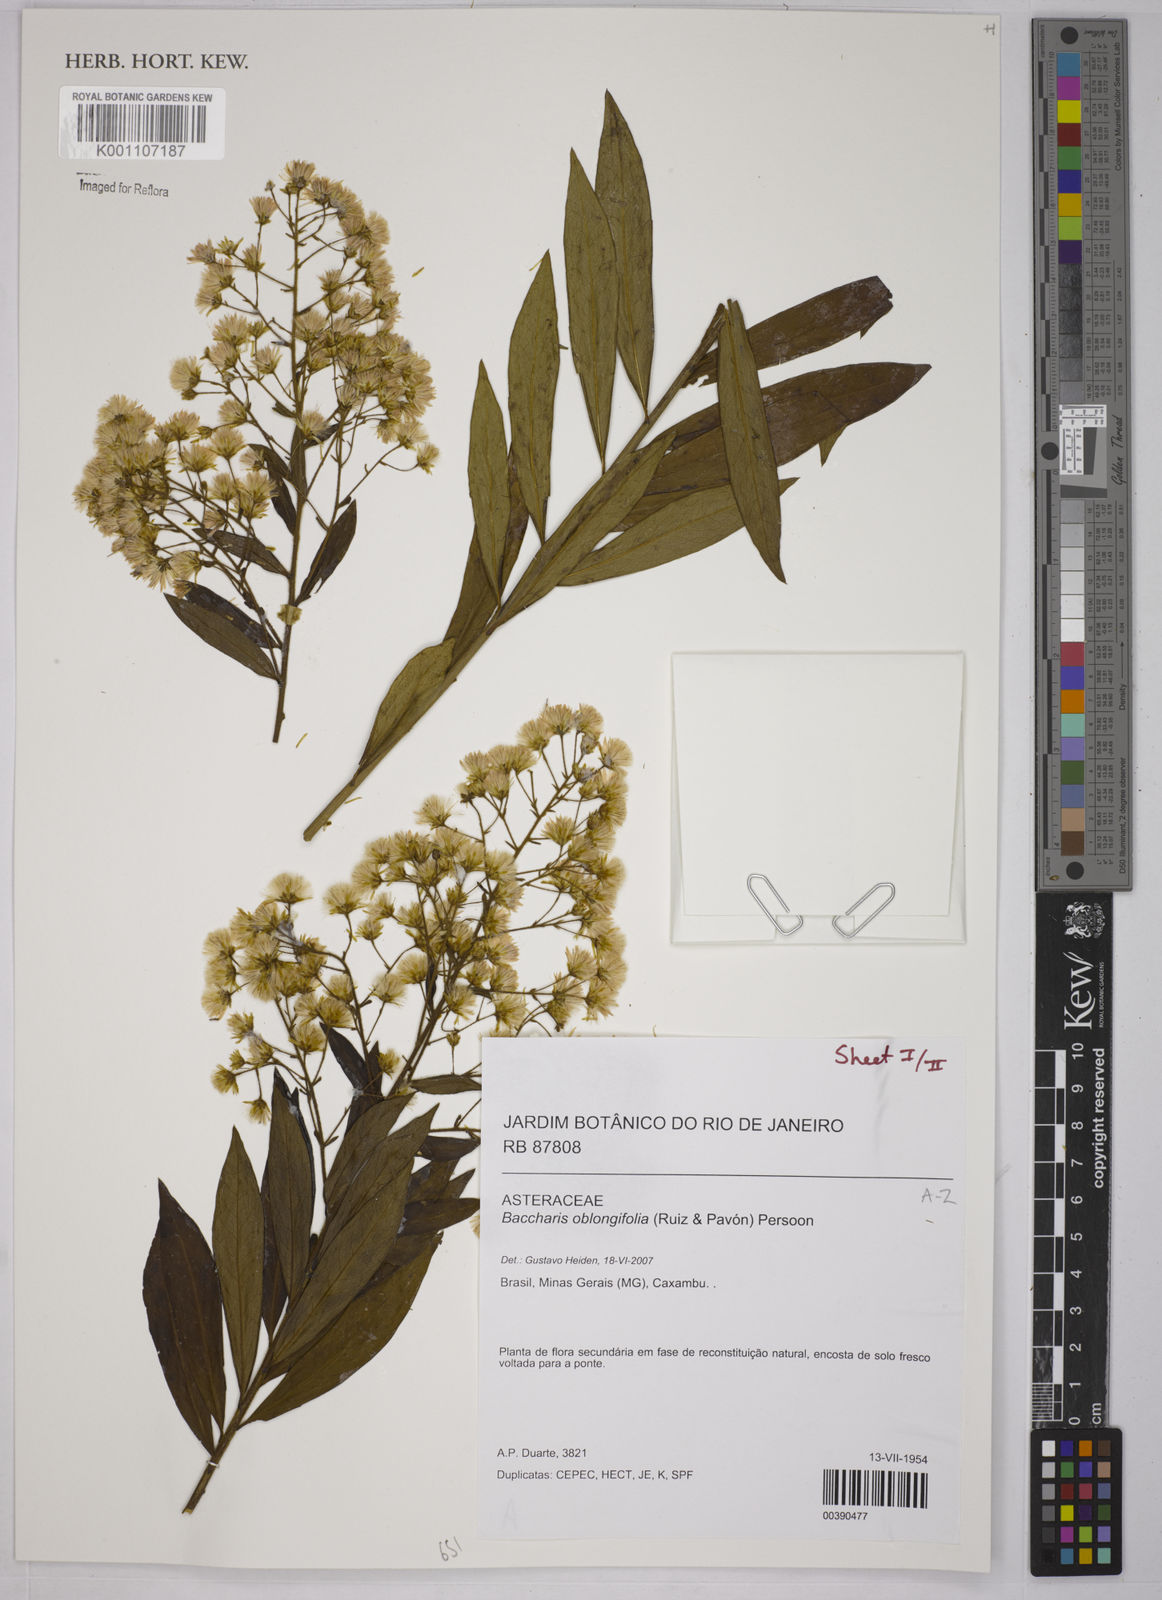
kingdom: Plantae
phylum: Tracheophyta
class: Magnoliopsida
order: Asterales
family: Asteraceae
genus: Baccharis
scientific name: Baccharis oblongifolia
